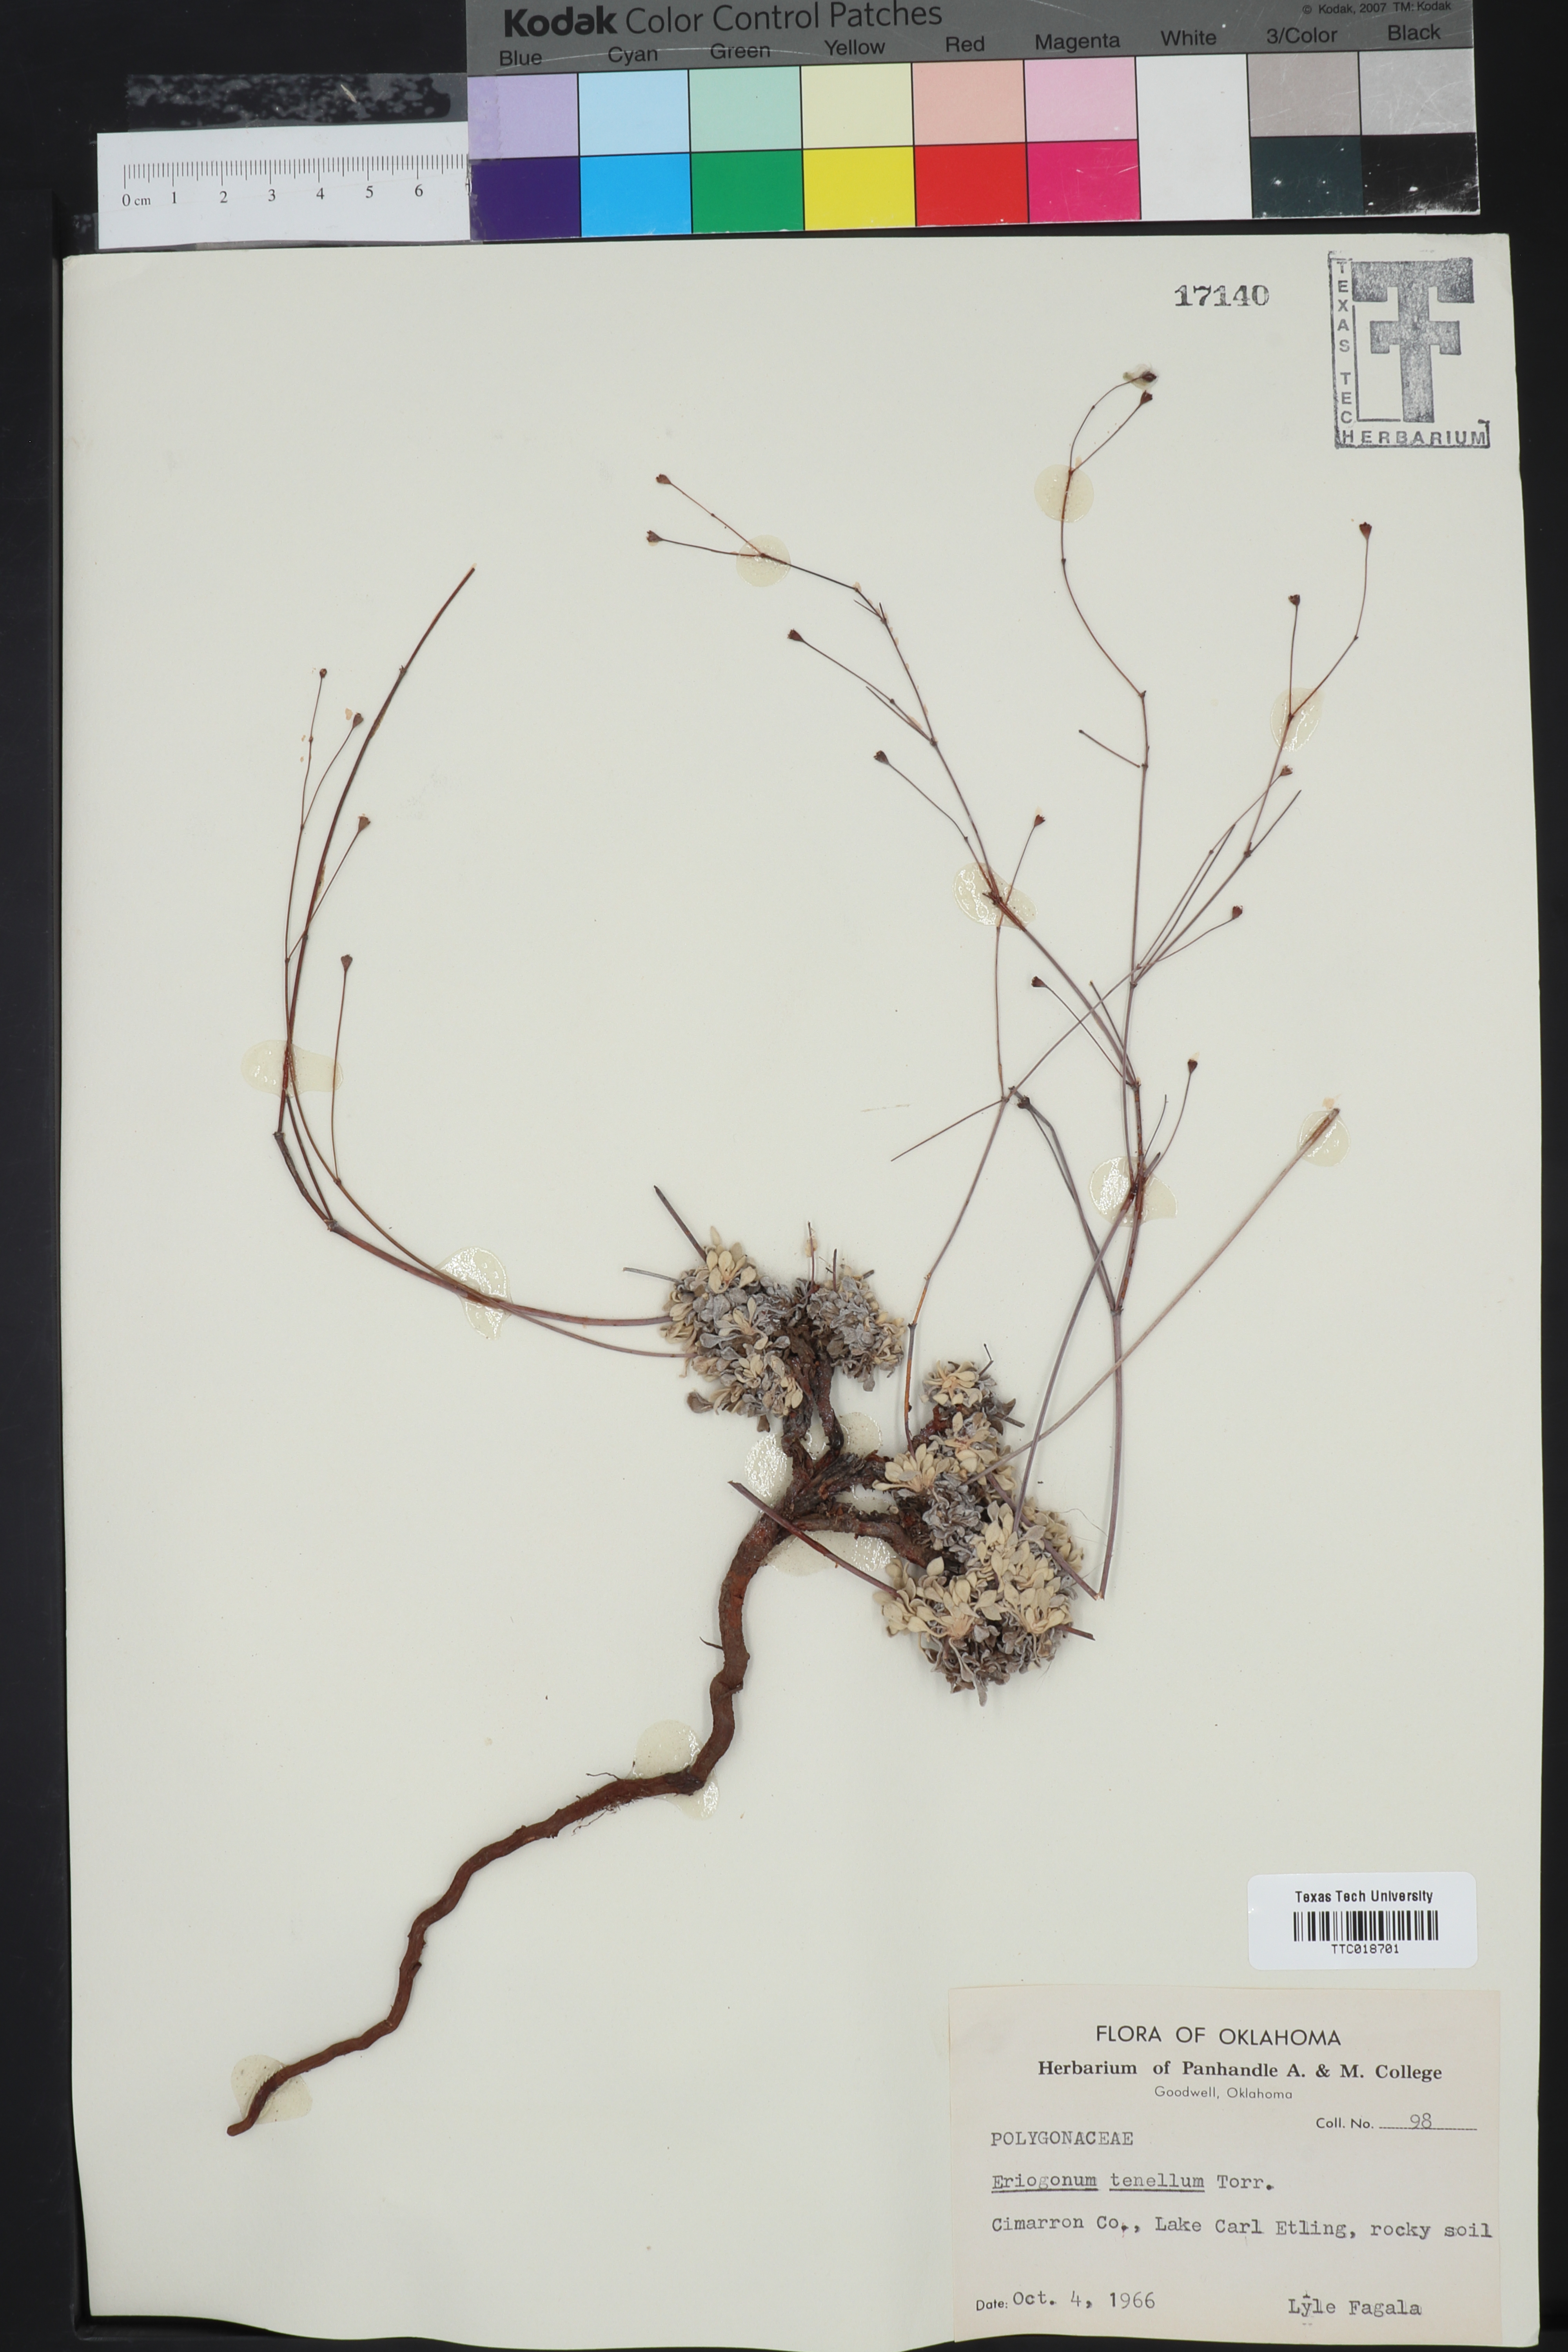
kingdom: Plantae
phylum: Tracheophyta
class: Magnoliopsida
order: Caryophyllales
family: Polygonaceae
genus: Eriogonum
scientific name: Eriogonum tenellum
